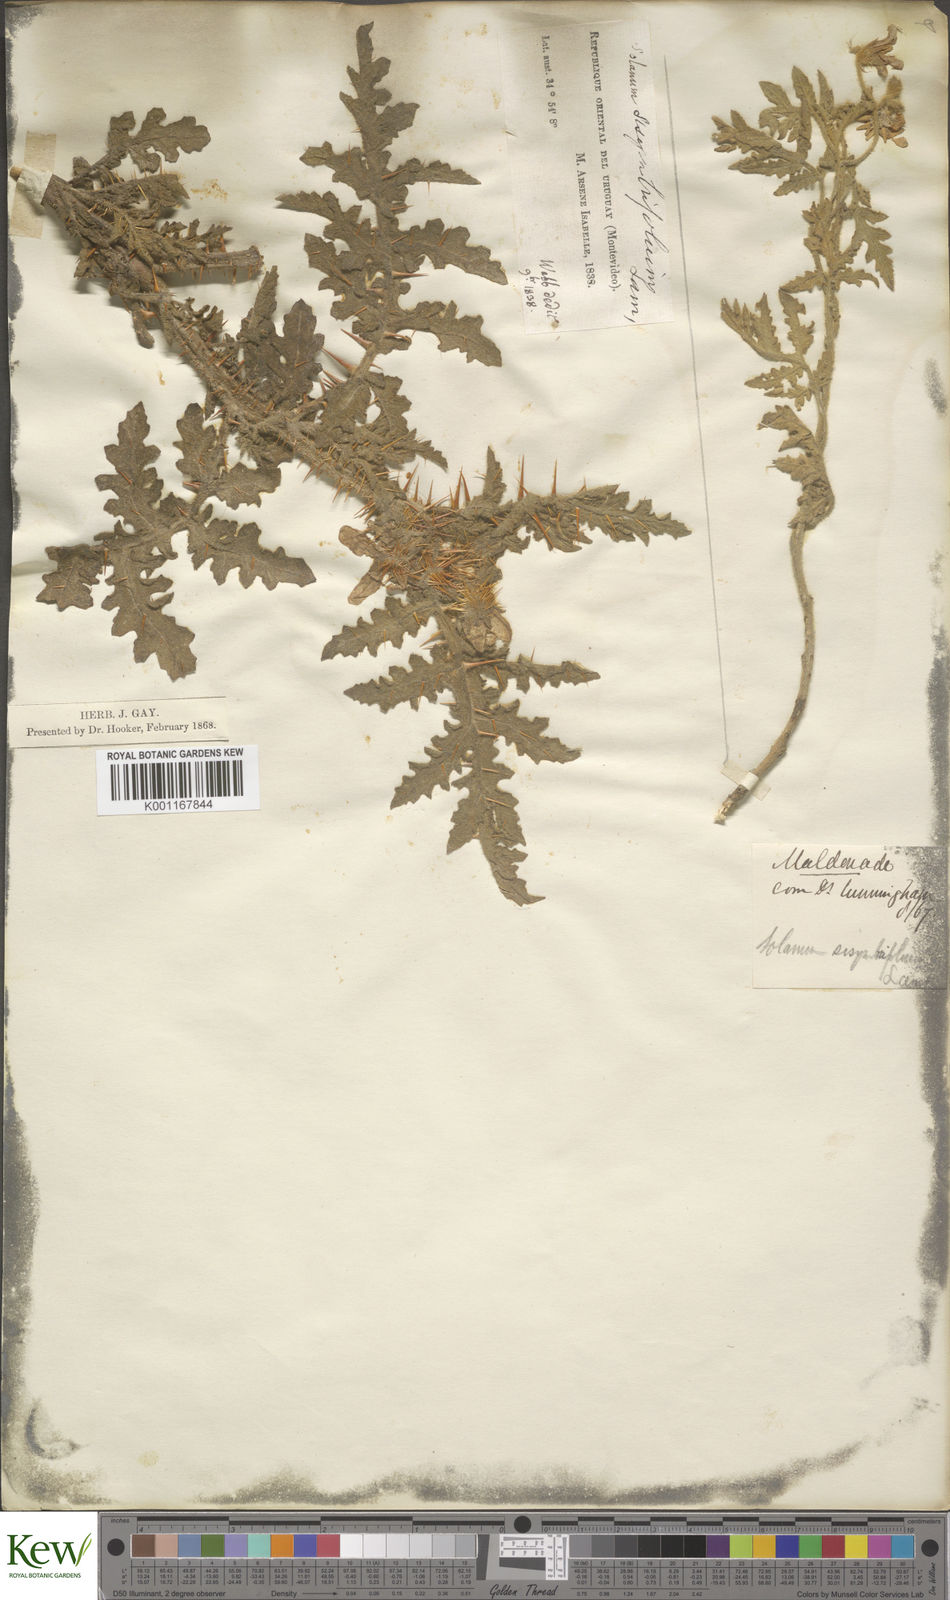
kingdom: Plantae
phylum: Tracheophyta
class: Magnoliopsida
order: Solanales
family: Solanaceae
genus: Solanum
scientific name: Solanum sisymbriifolium
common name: Red buffalo-bur
